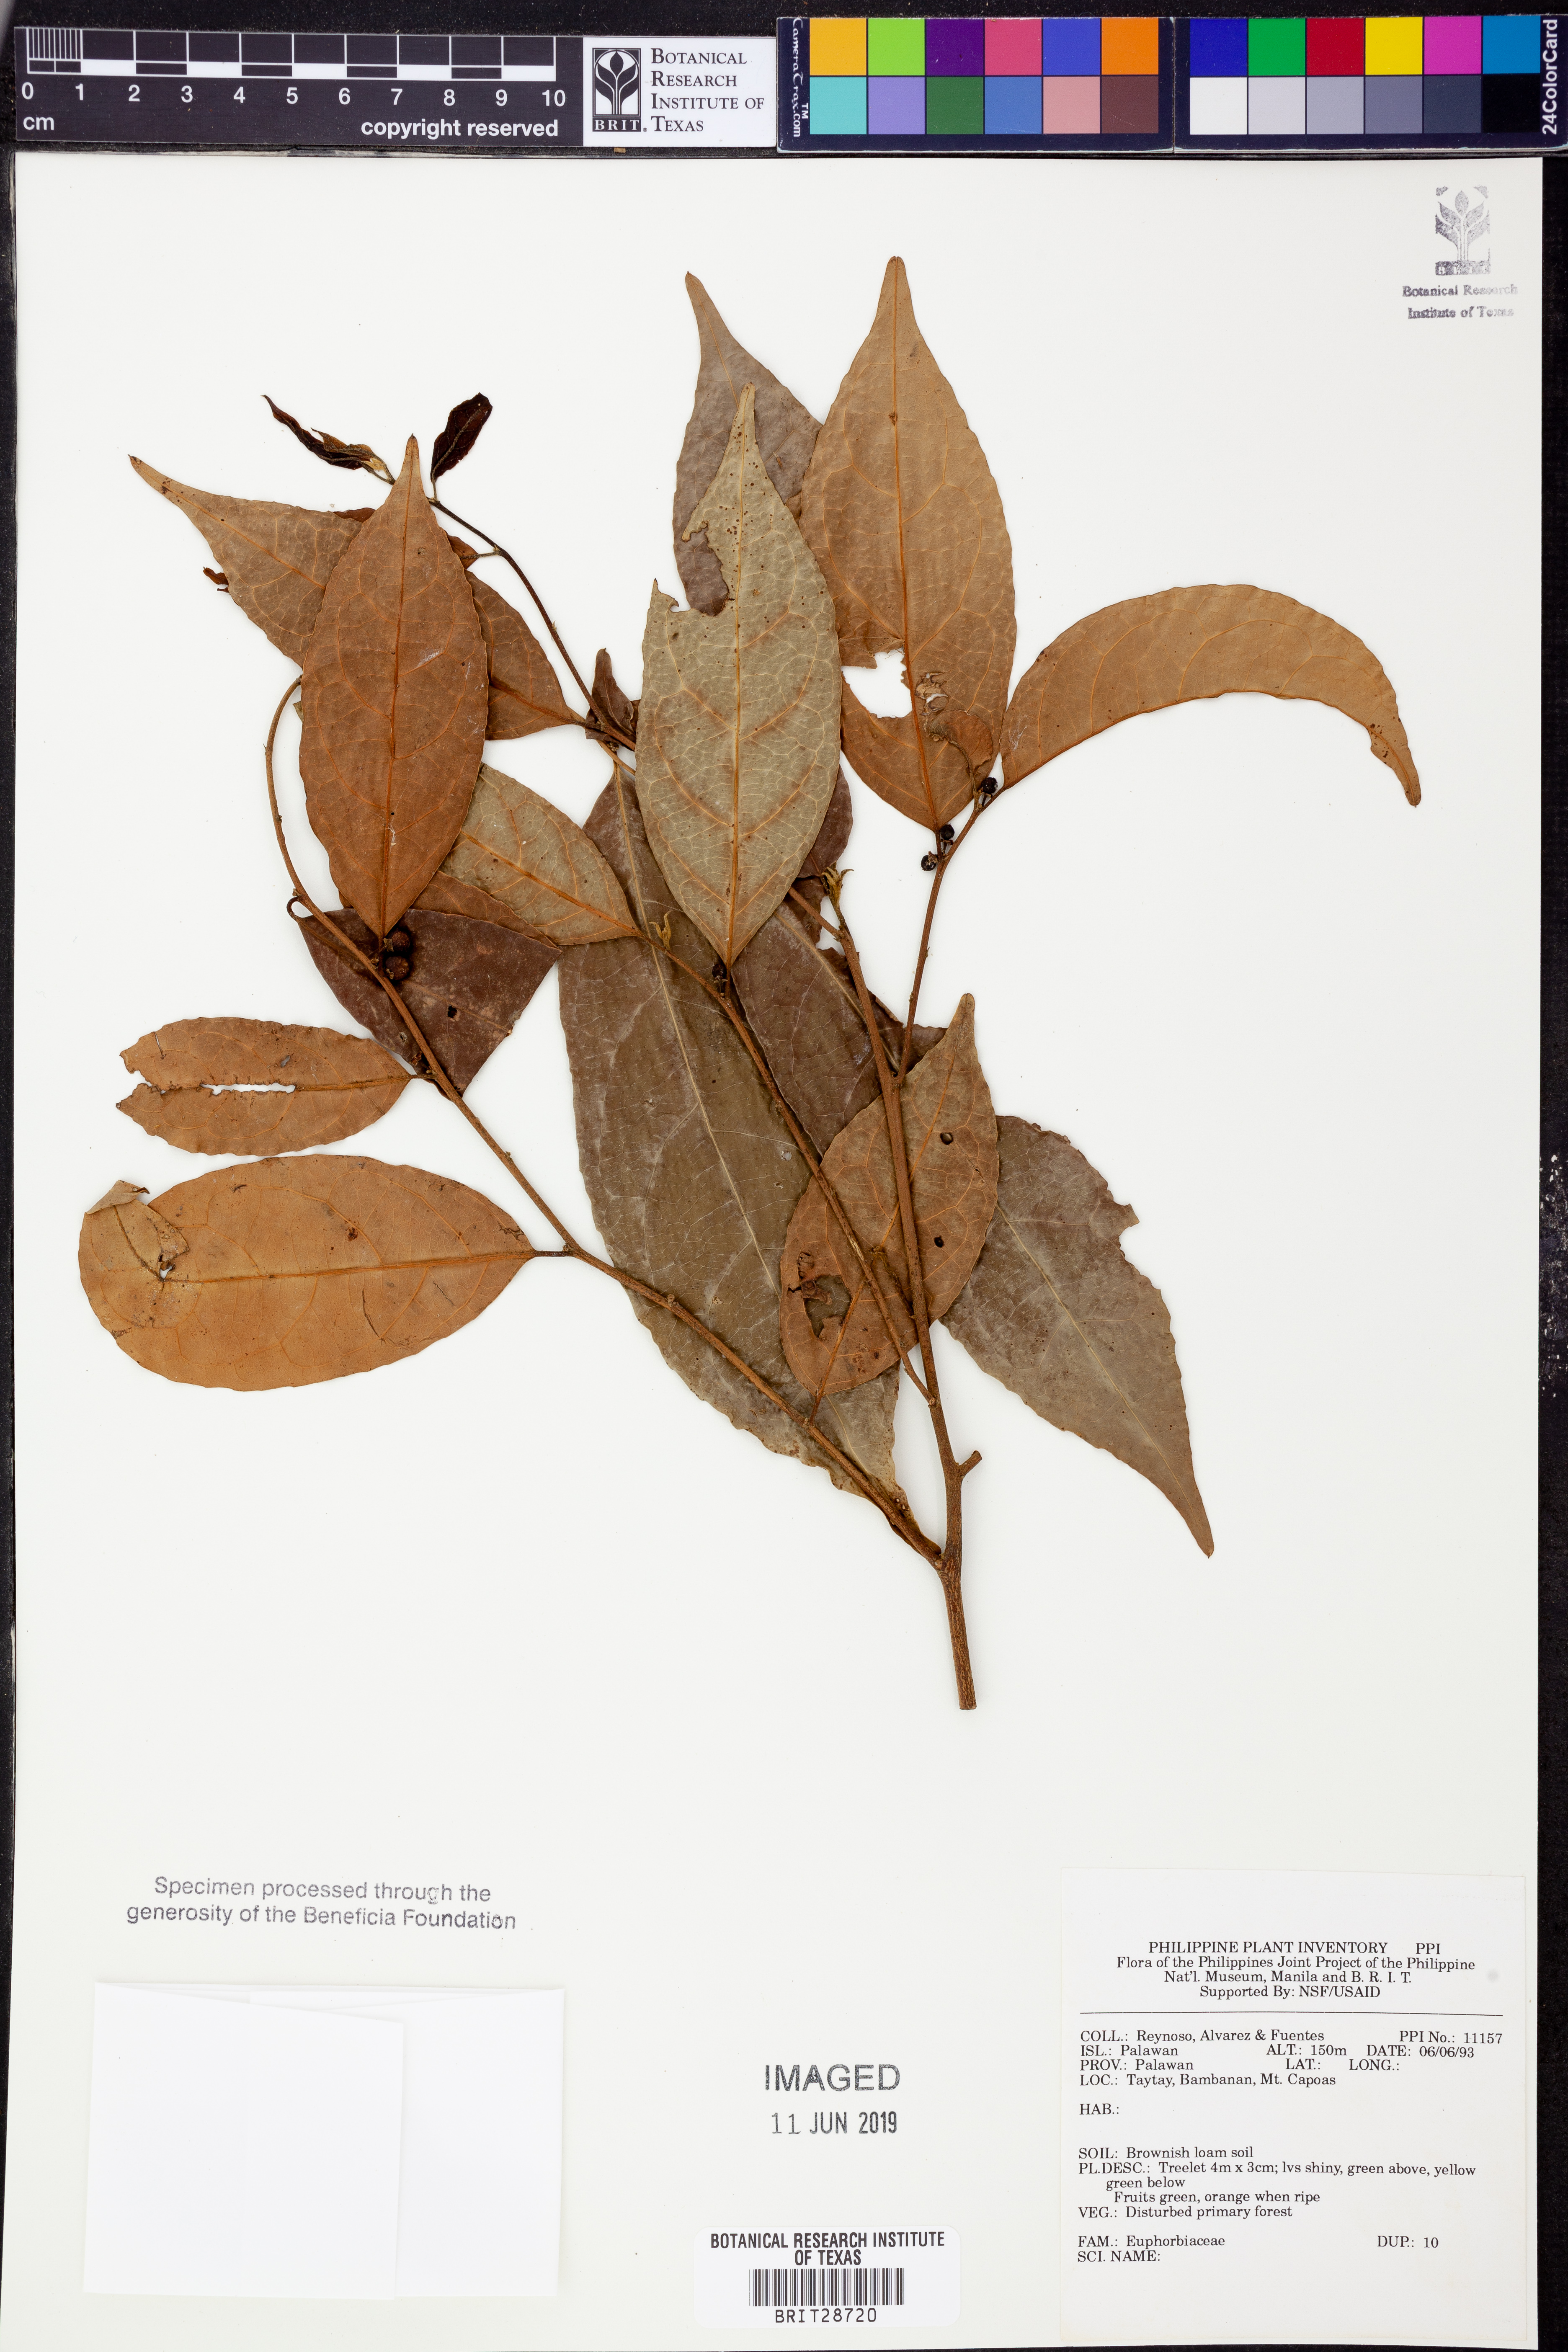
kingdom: Plantae
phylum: Tracheophyta
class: Magnoliopsida
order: Malpighiales
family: Euphorbiaceae
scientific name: Euphorbiaceae
